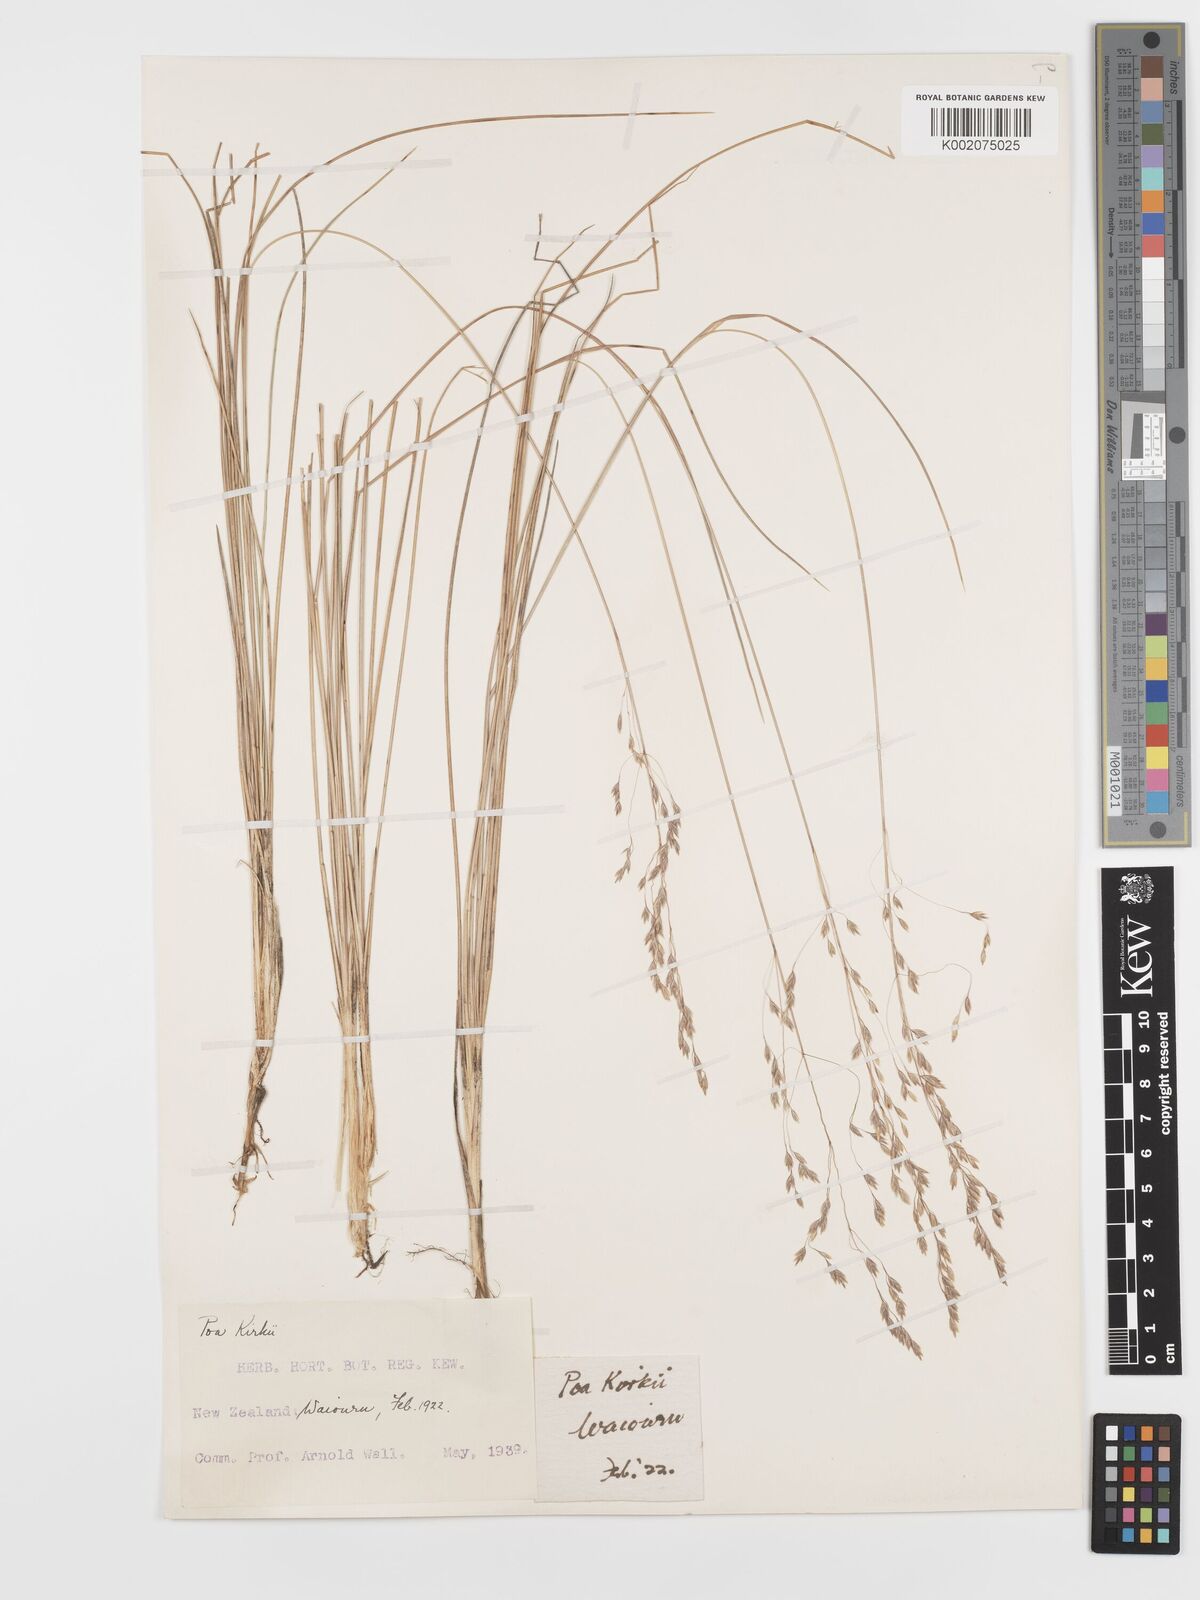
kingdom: Plantae
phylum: Tracheophyta
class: Liliopsida
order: Poales
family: Poaceae
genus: Poa
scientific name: Poa kirkii
